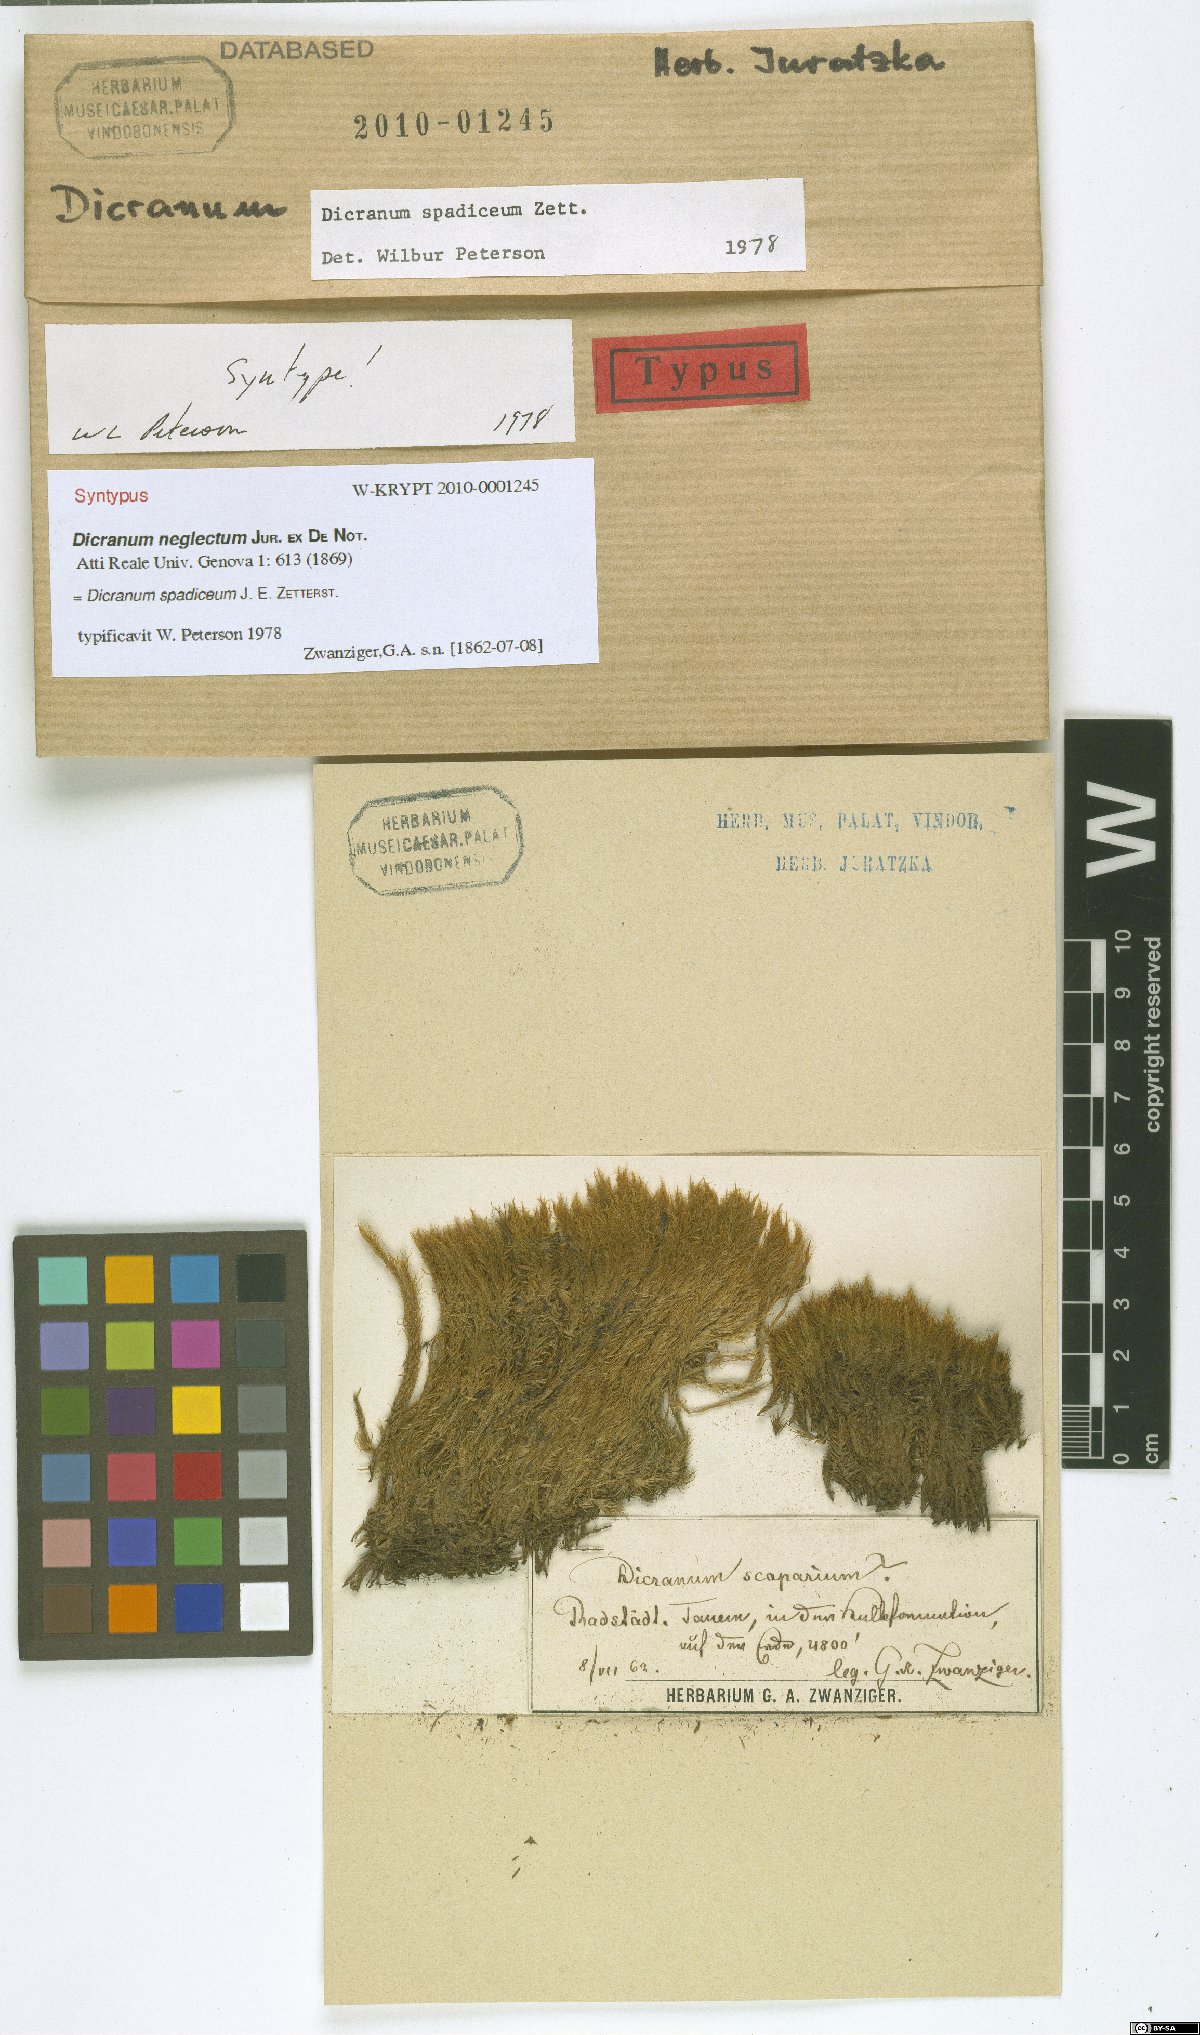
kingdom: Plantae
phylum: Bryophyta
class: Bryopsida
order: Dicranales
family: Dicranaceae
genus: Dicranum
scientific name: Dicranum spadiceum
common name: Confusing broom moss
